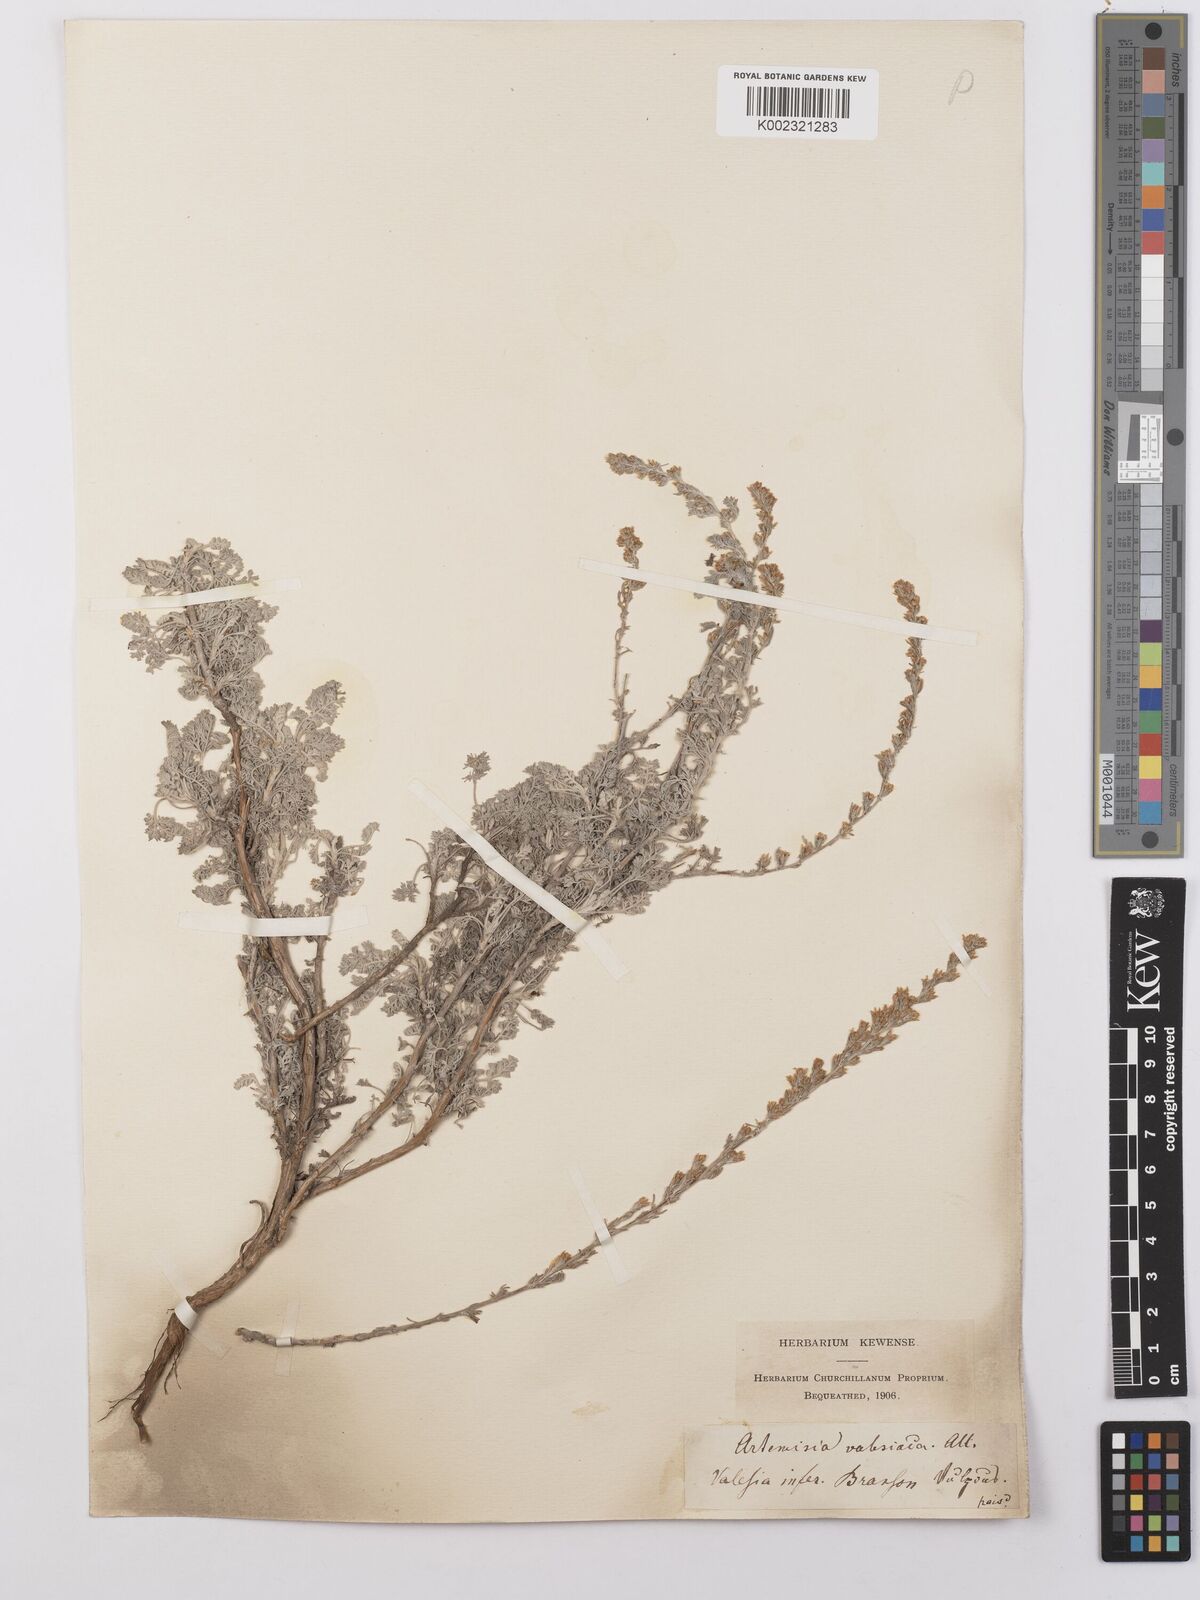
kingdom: Plantae
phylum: Tracheophyta
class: Magnoliopsida
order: Asterales
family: Asteraceae
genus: Artemisia
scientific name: Artemisia vallesiaca
